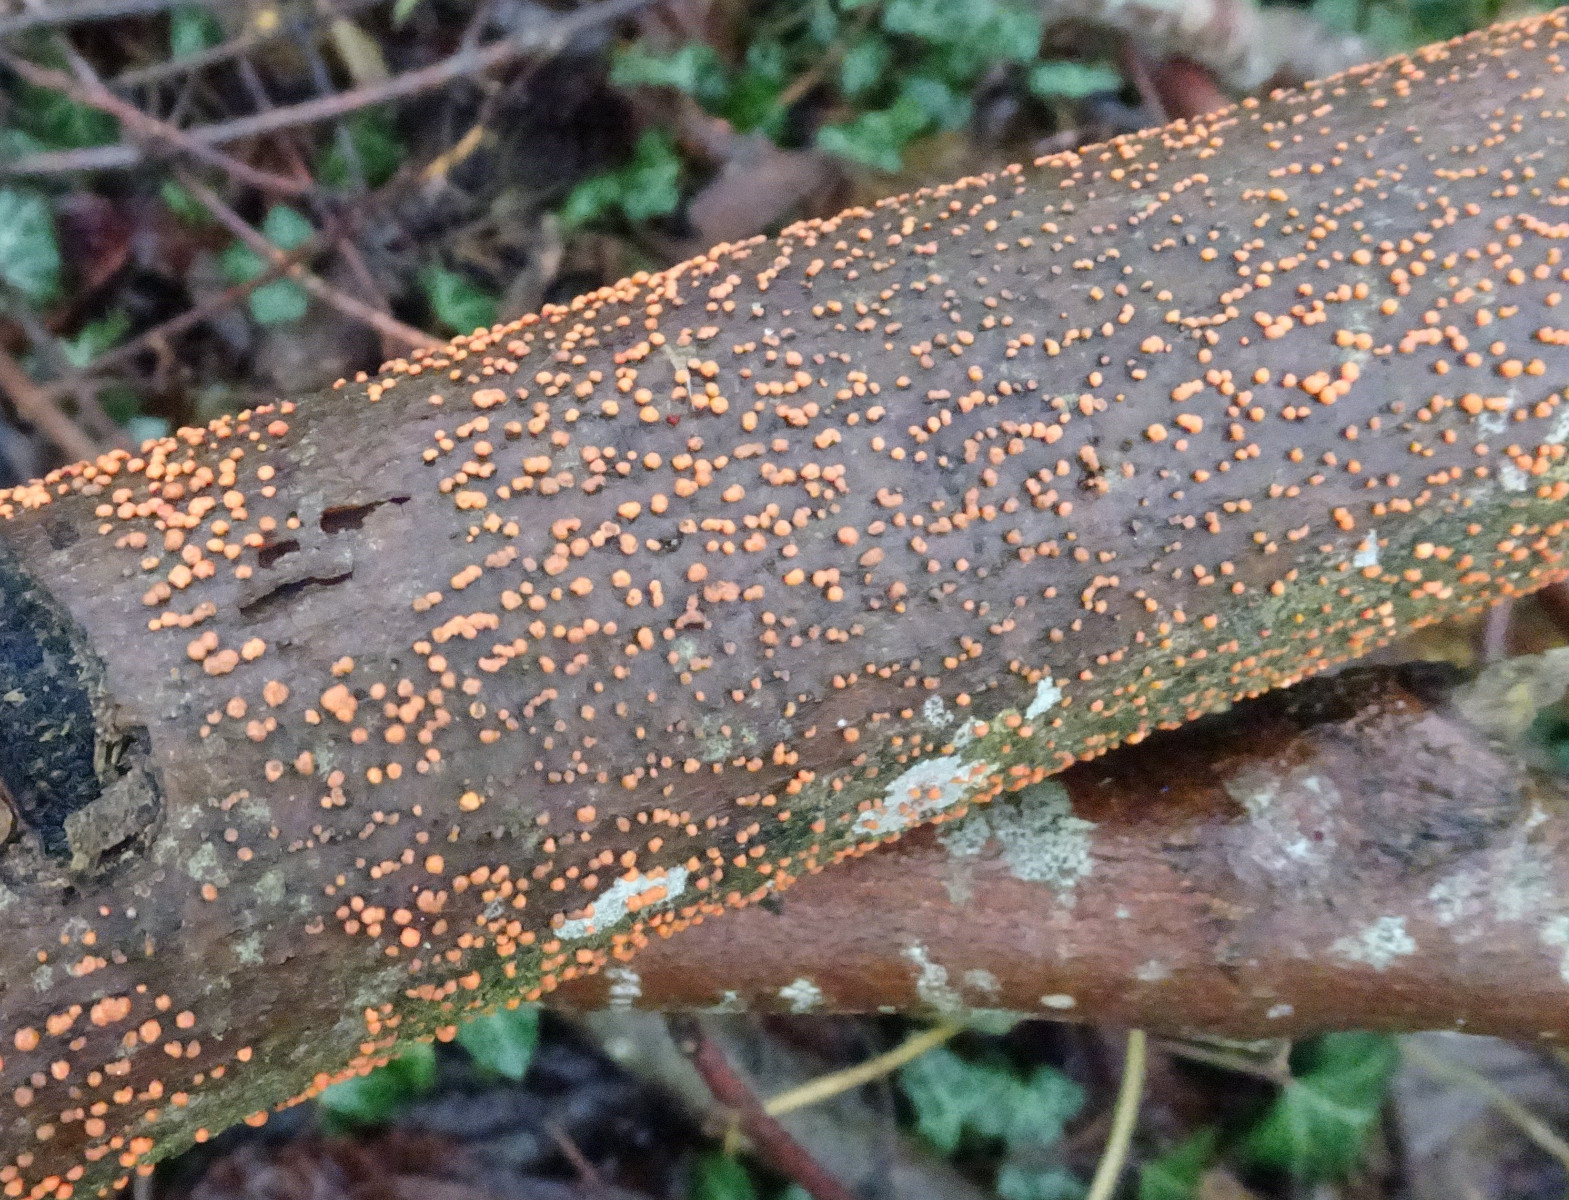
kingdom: Fungi
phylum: Ascomycota
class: Sordariomycetes
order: Hypocreales
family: Nectriaceae
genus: Nectria
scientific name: Nectria cinnabarina
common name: almindelig cinnobersvamp
